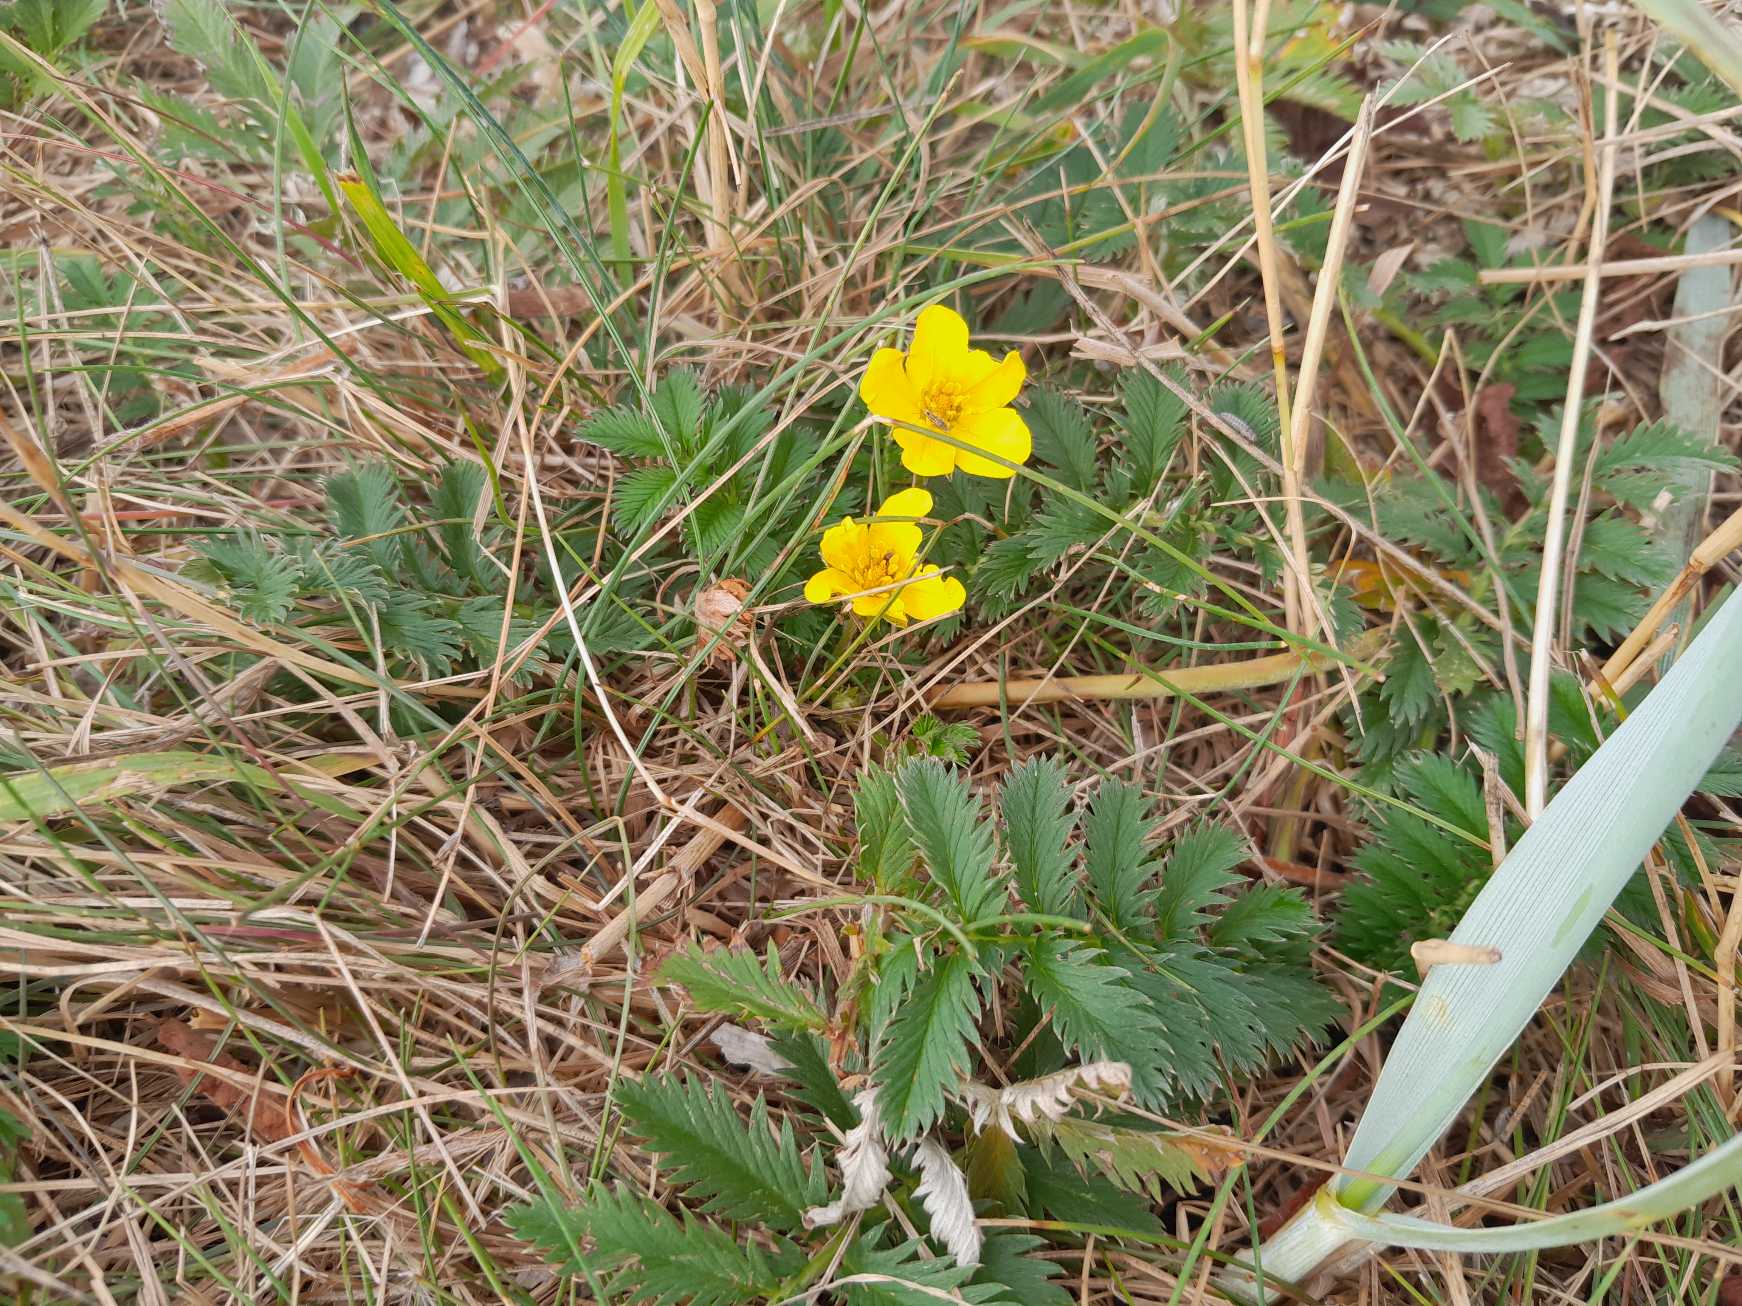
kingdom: Plantae
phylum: Tracheophyta
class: Magnoliopsida
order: Rosales
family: Rosaceae
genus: Argentina
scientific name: Argentina anserina
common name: Gåsepotentil
